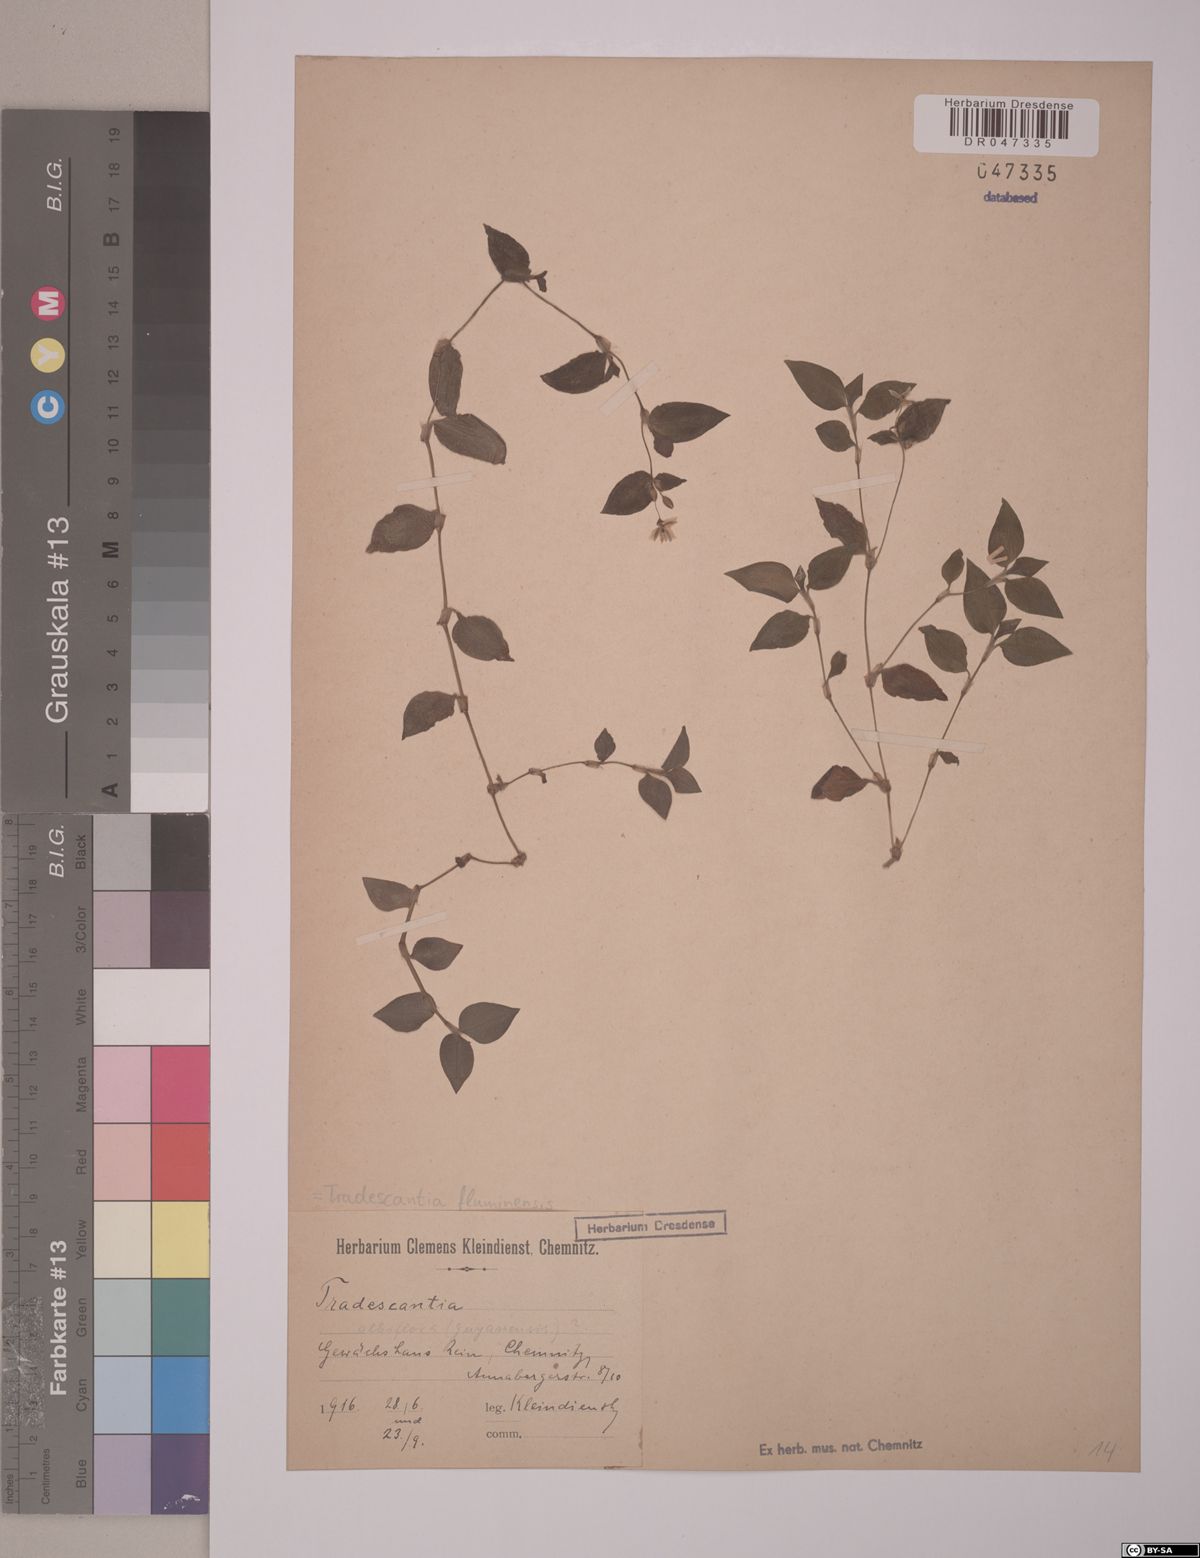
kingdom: Plantae
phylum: Tracheophyta
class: Liliopsida
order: Commelinales
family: Commelinaceae
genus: Tradescantia
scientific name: Tradescantia fluminensis
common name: Wandering-jew
